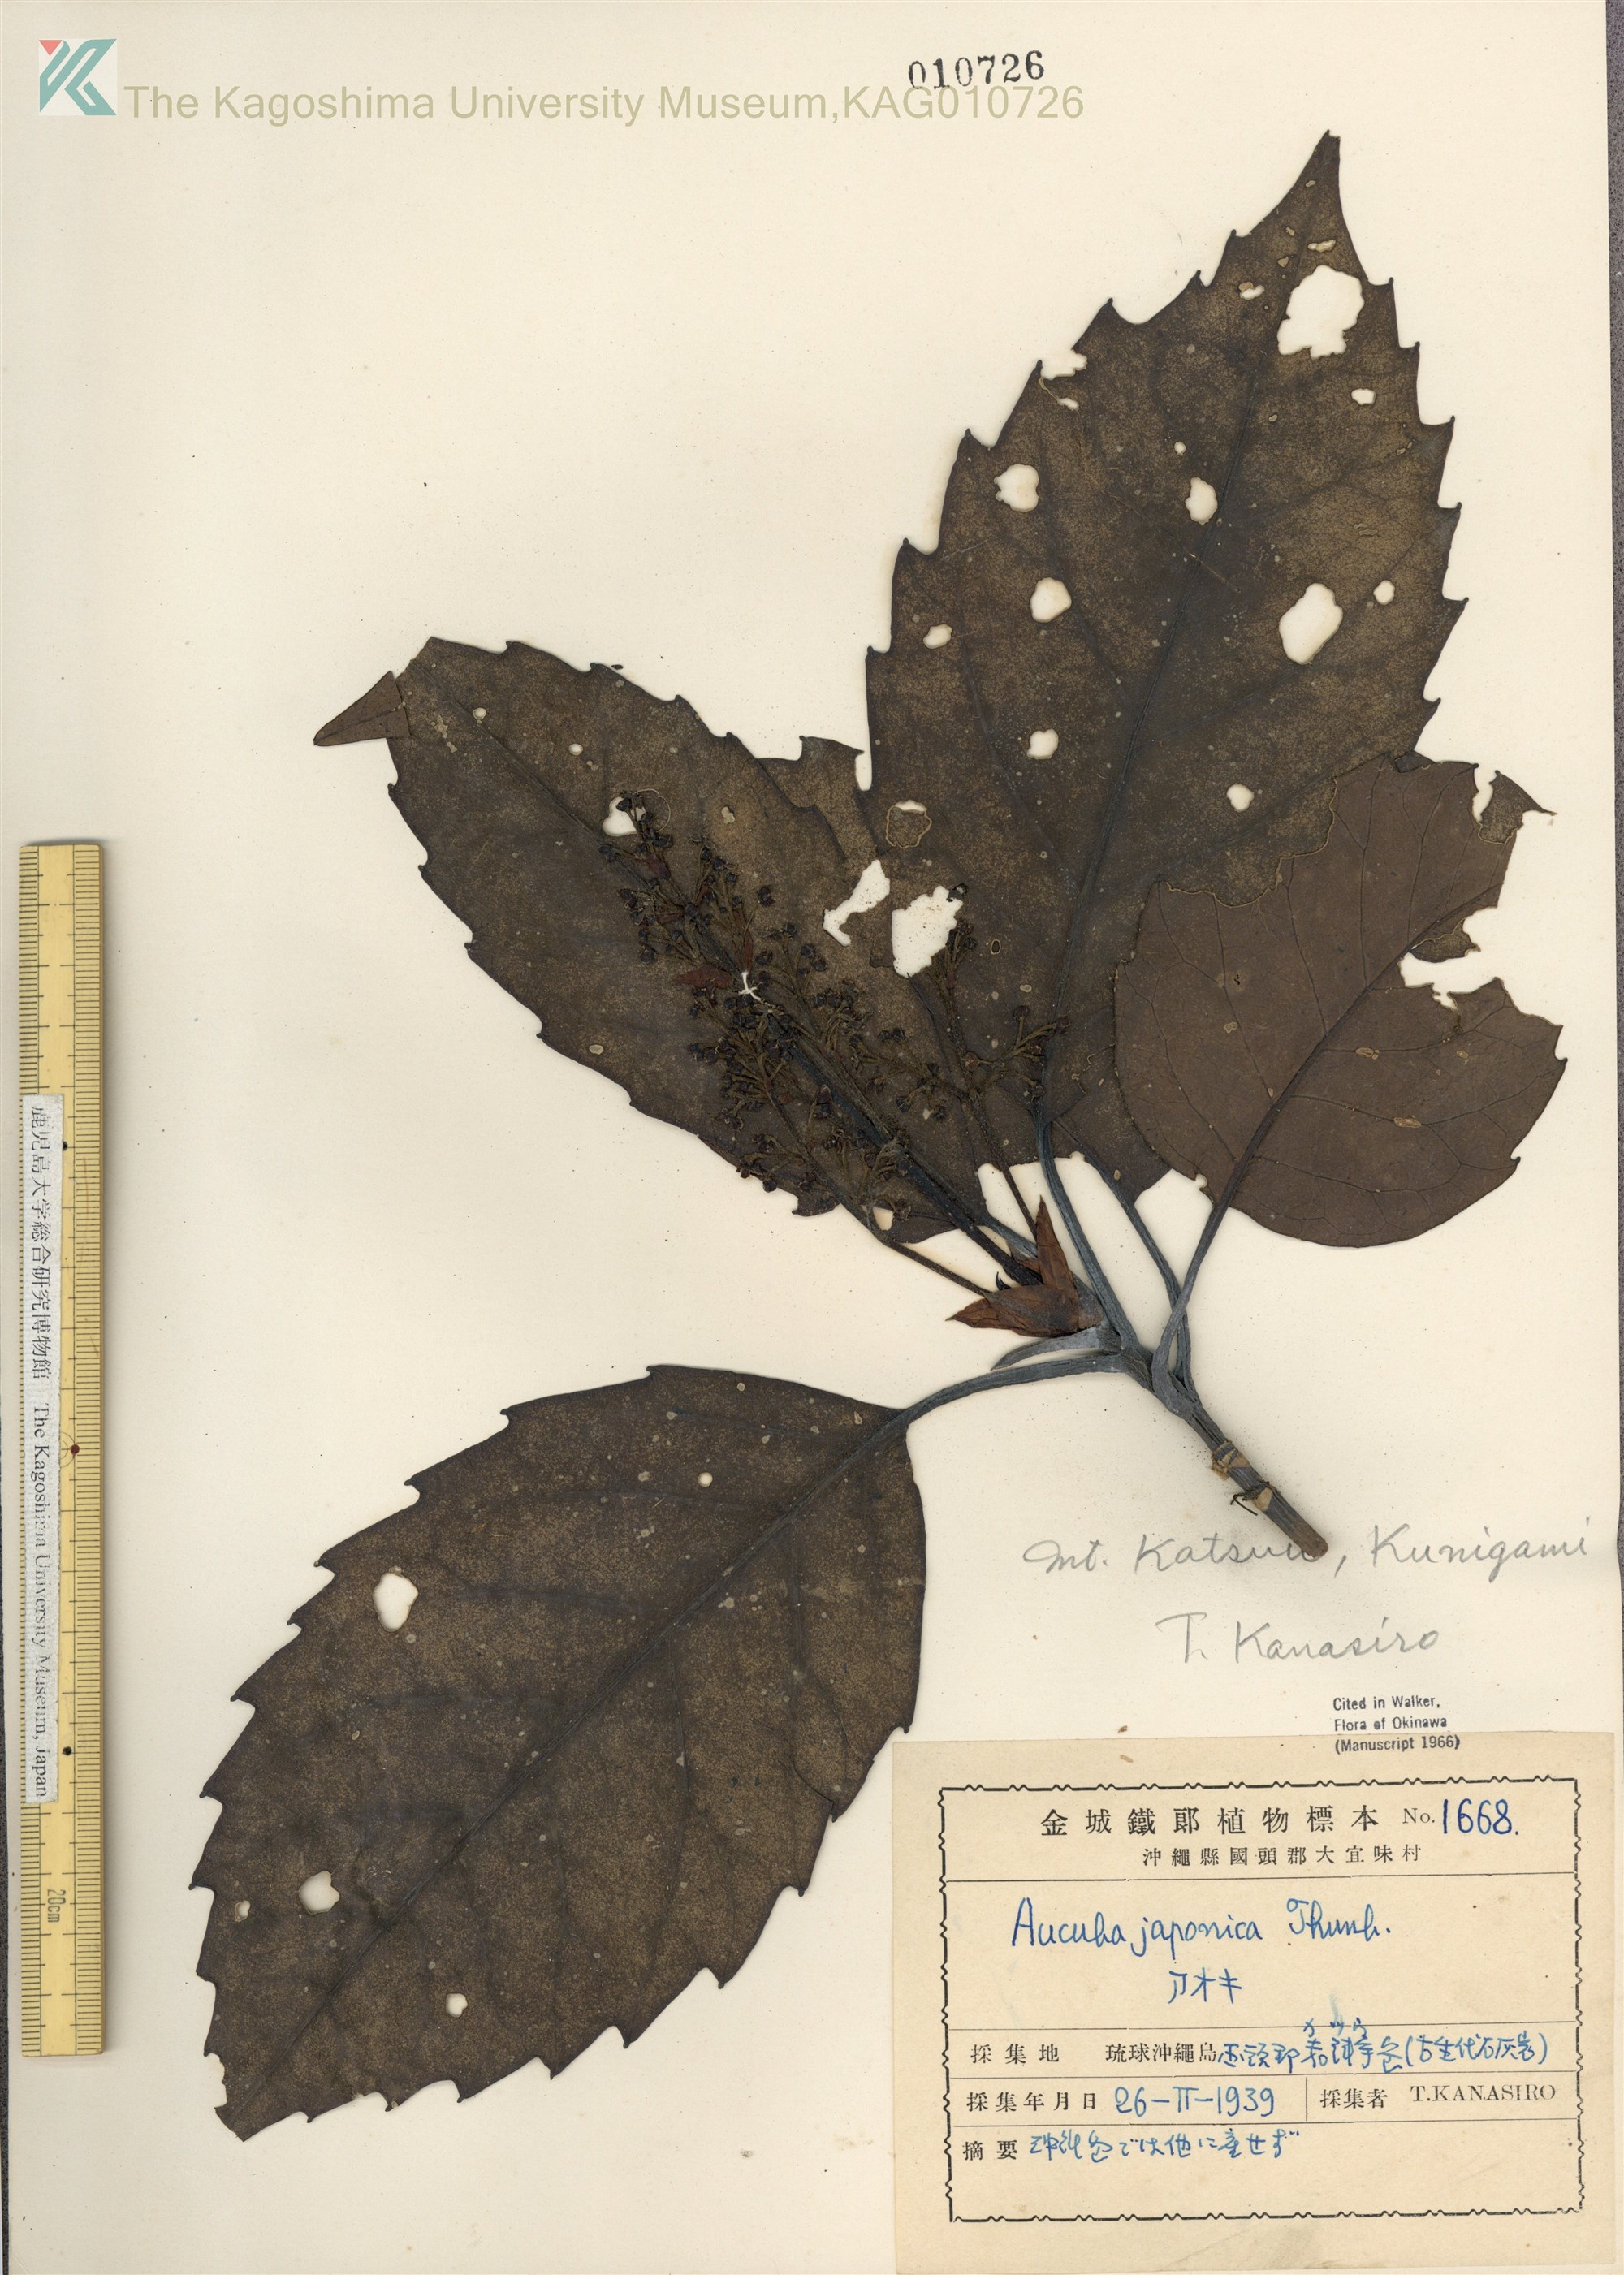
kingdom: Plantae
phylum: Tracheophyta
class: Magnoliopsida
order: Garryales
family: Garryaceae
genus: Aucuba
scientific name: Aucuba japonica
